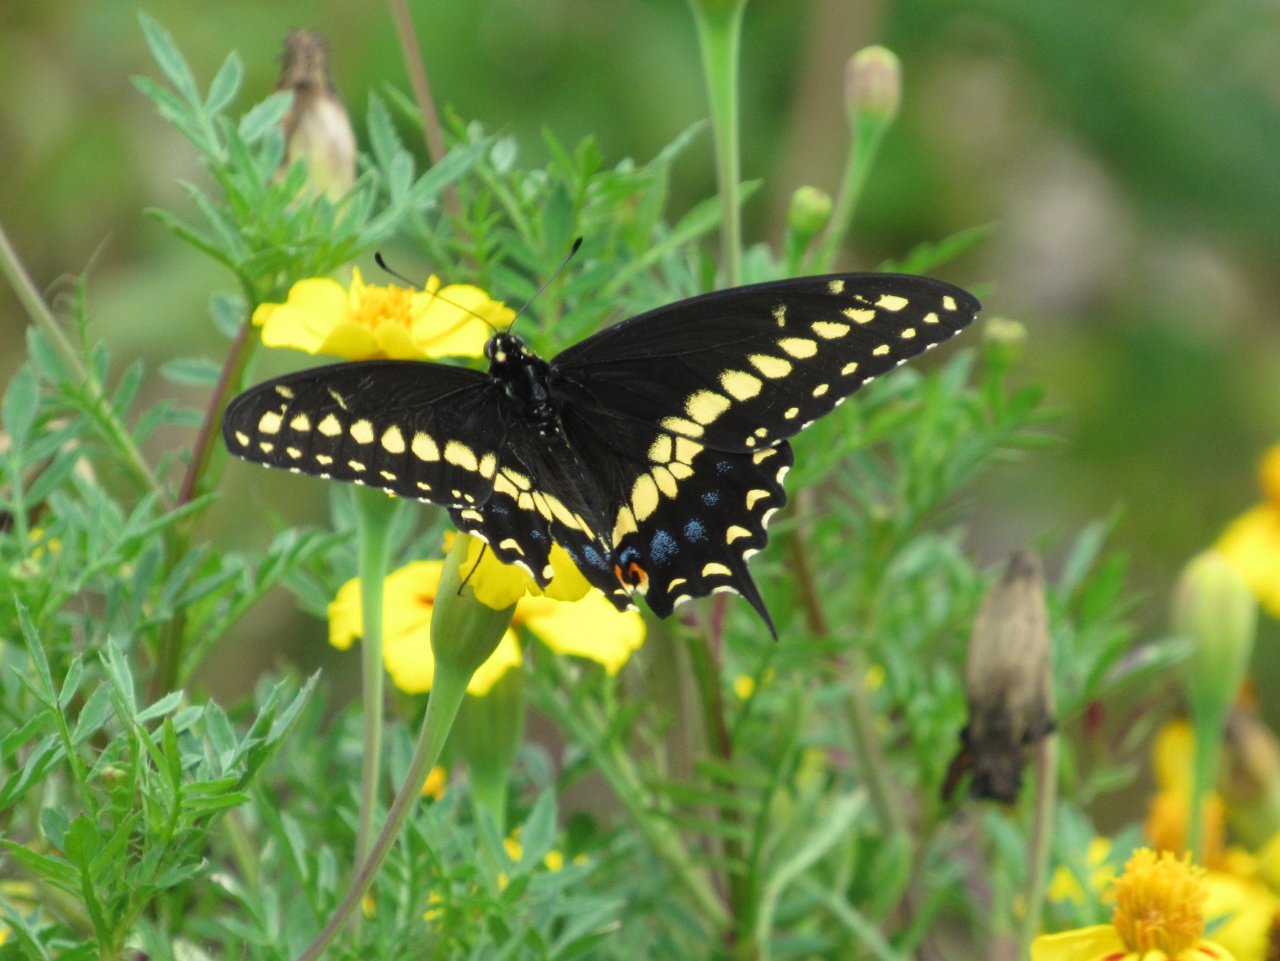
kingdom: Animalia
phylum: Arthropoda
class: Insecta
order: Lepidoptera
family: Papilionidae
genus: Papilio
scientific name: Papilio polyxenes
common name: Black Swallowtail
